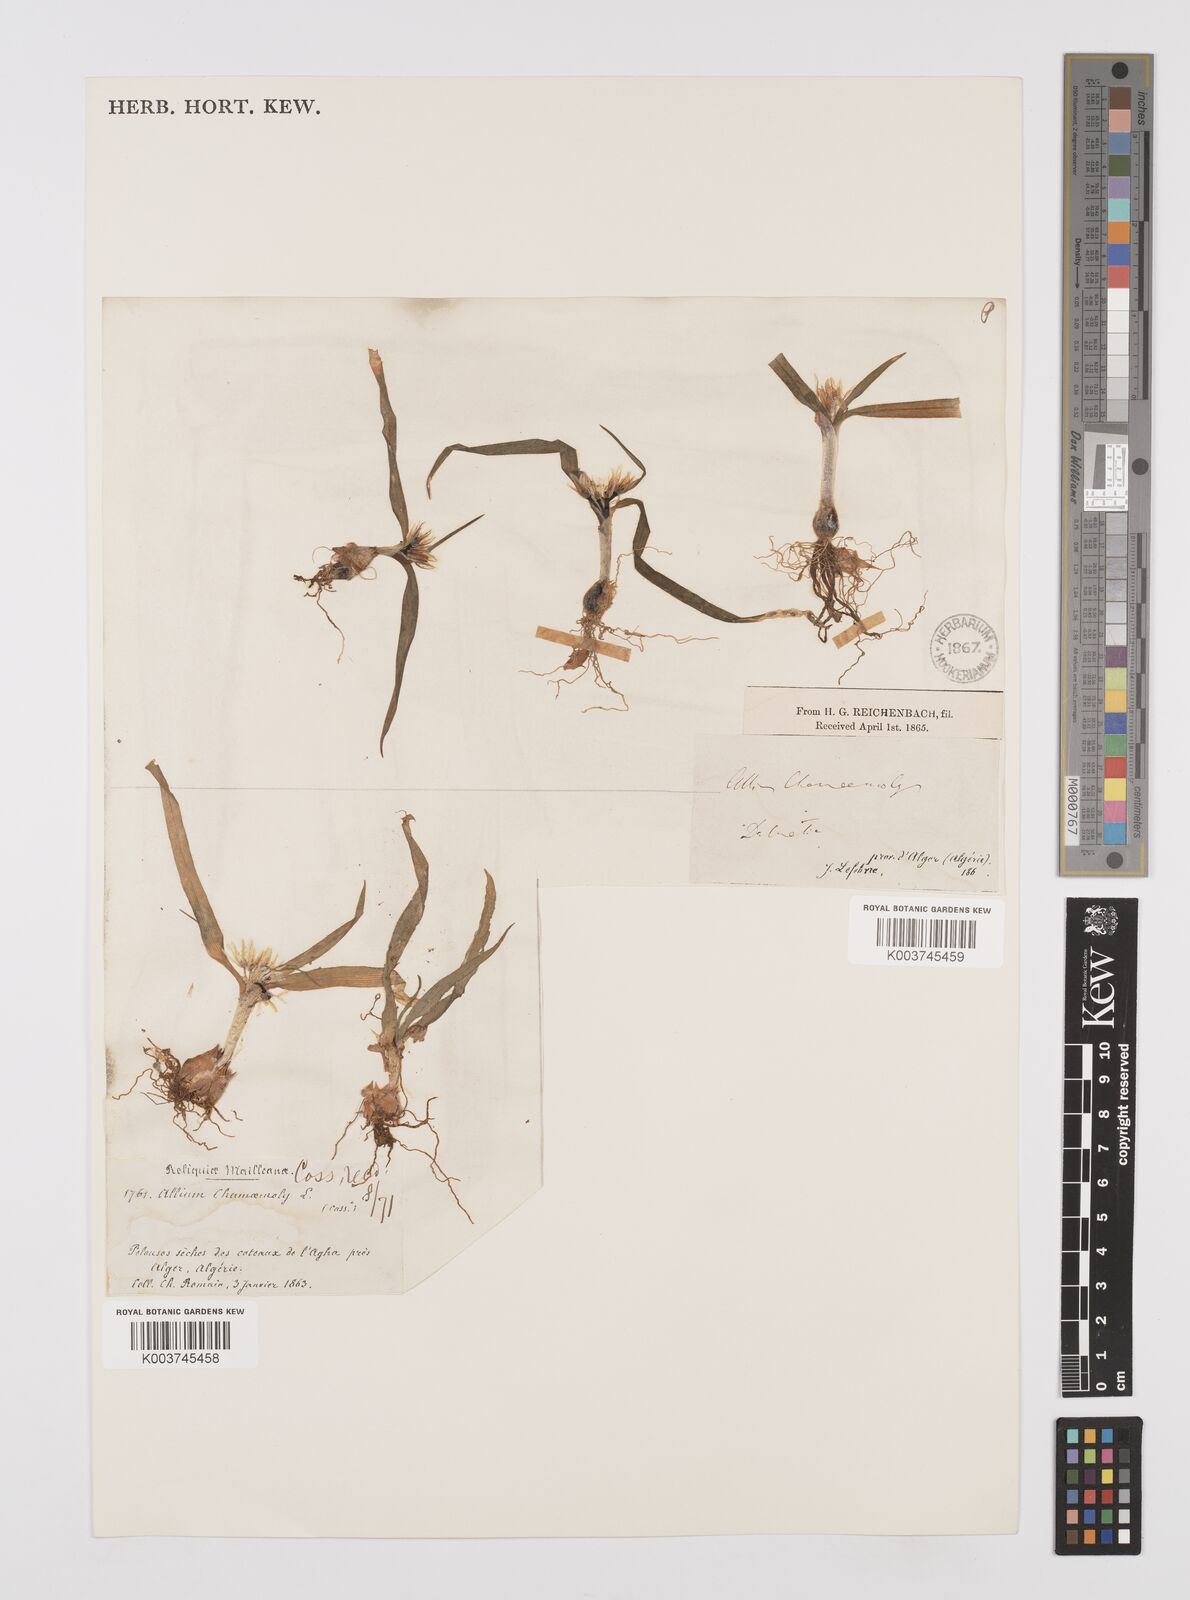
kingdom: Plantae
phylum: Tracheophyta
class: Liliopsida
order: Asparagales
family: Amaryllidaceae
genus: Allium
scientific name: Allium chamaemoly
